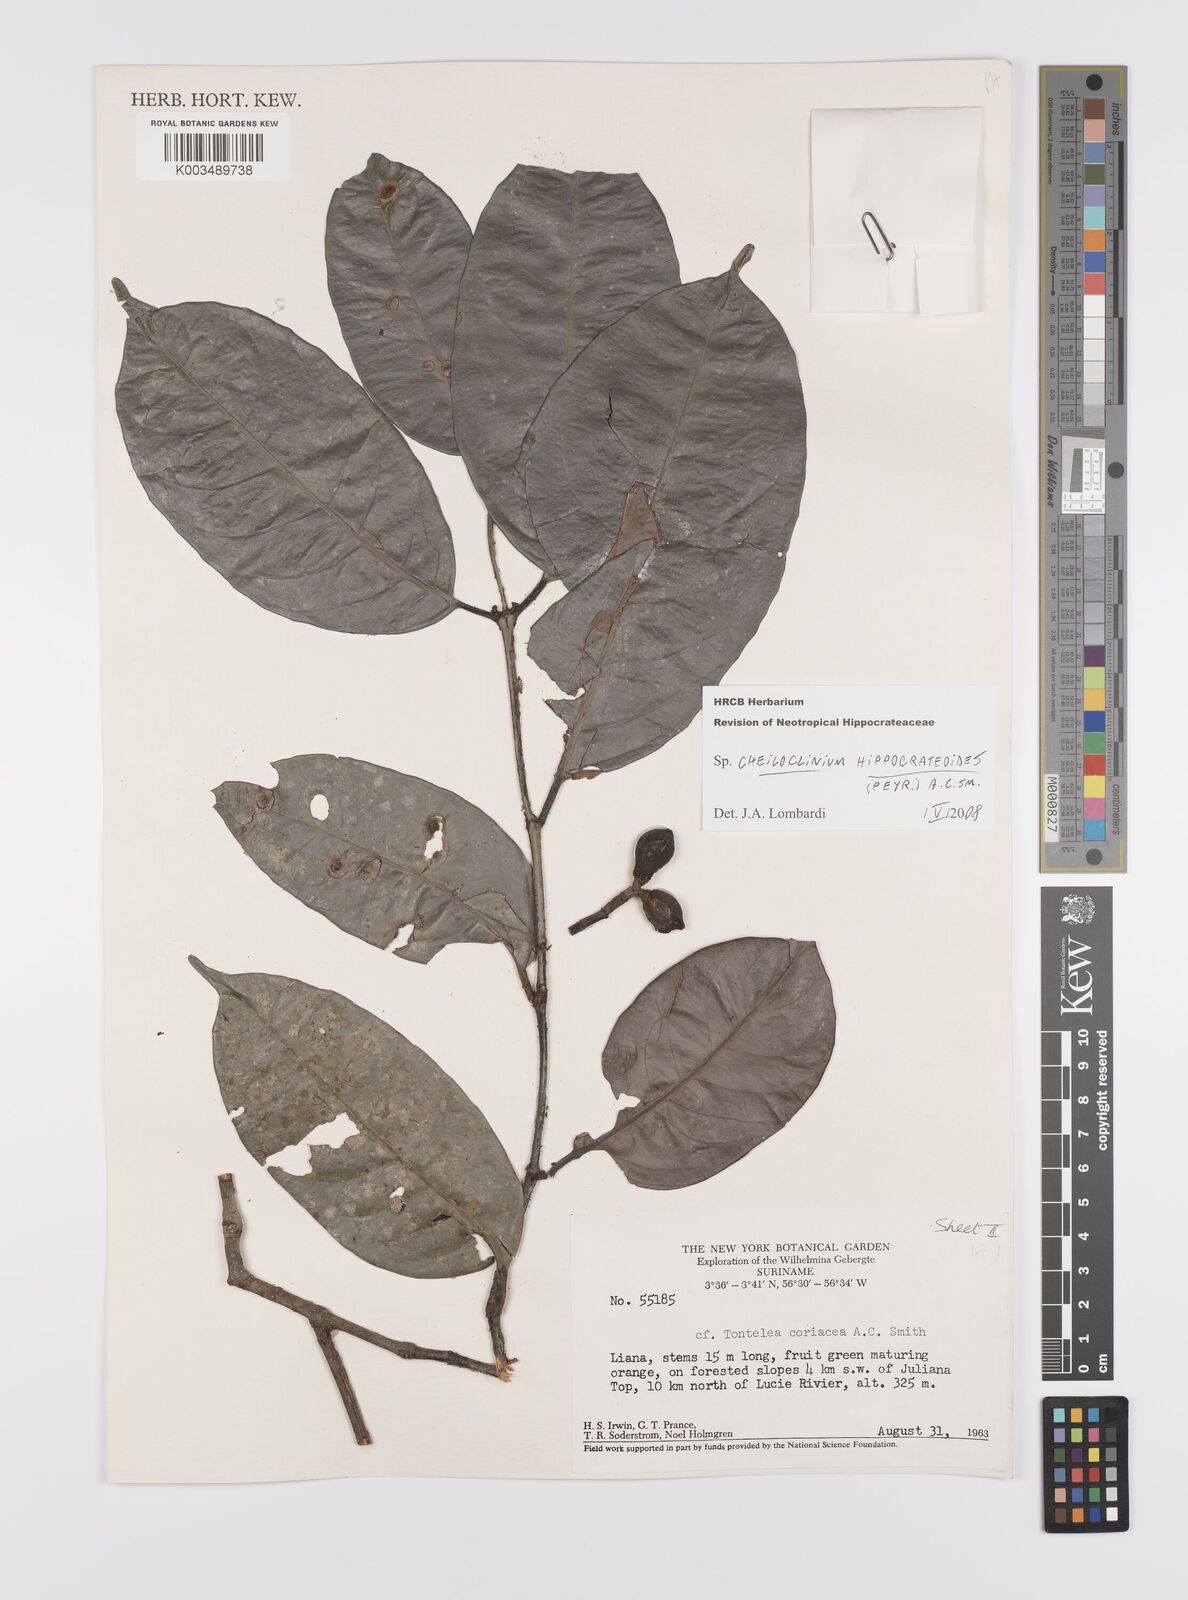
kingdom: Plantae
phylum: Tracheophyta
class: Magnoliopsida
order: Celastrales
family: Celastraceae
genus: Cheiloclinium
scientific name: Cheiloclinium hippocrateoides
